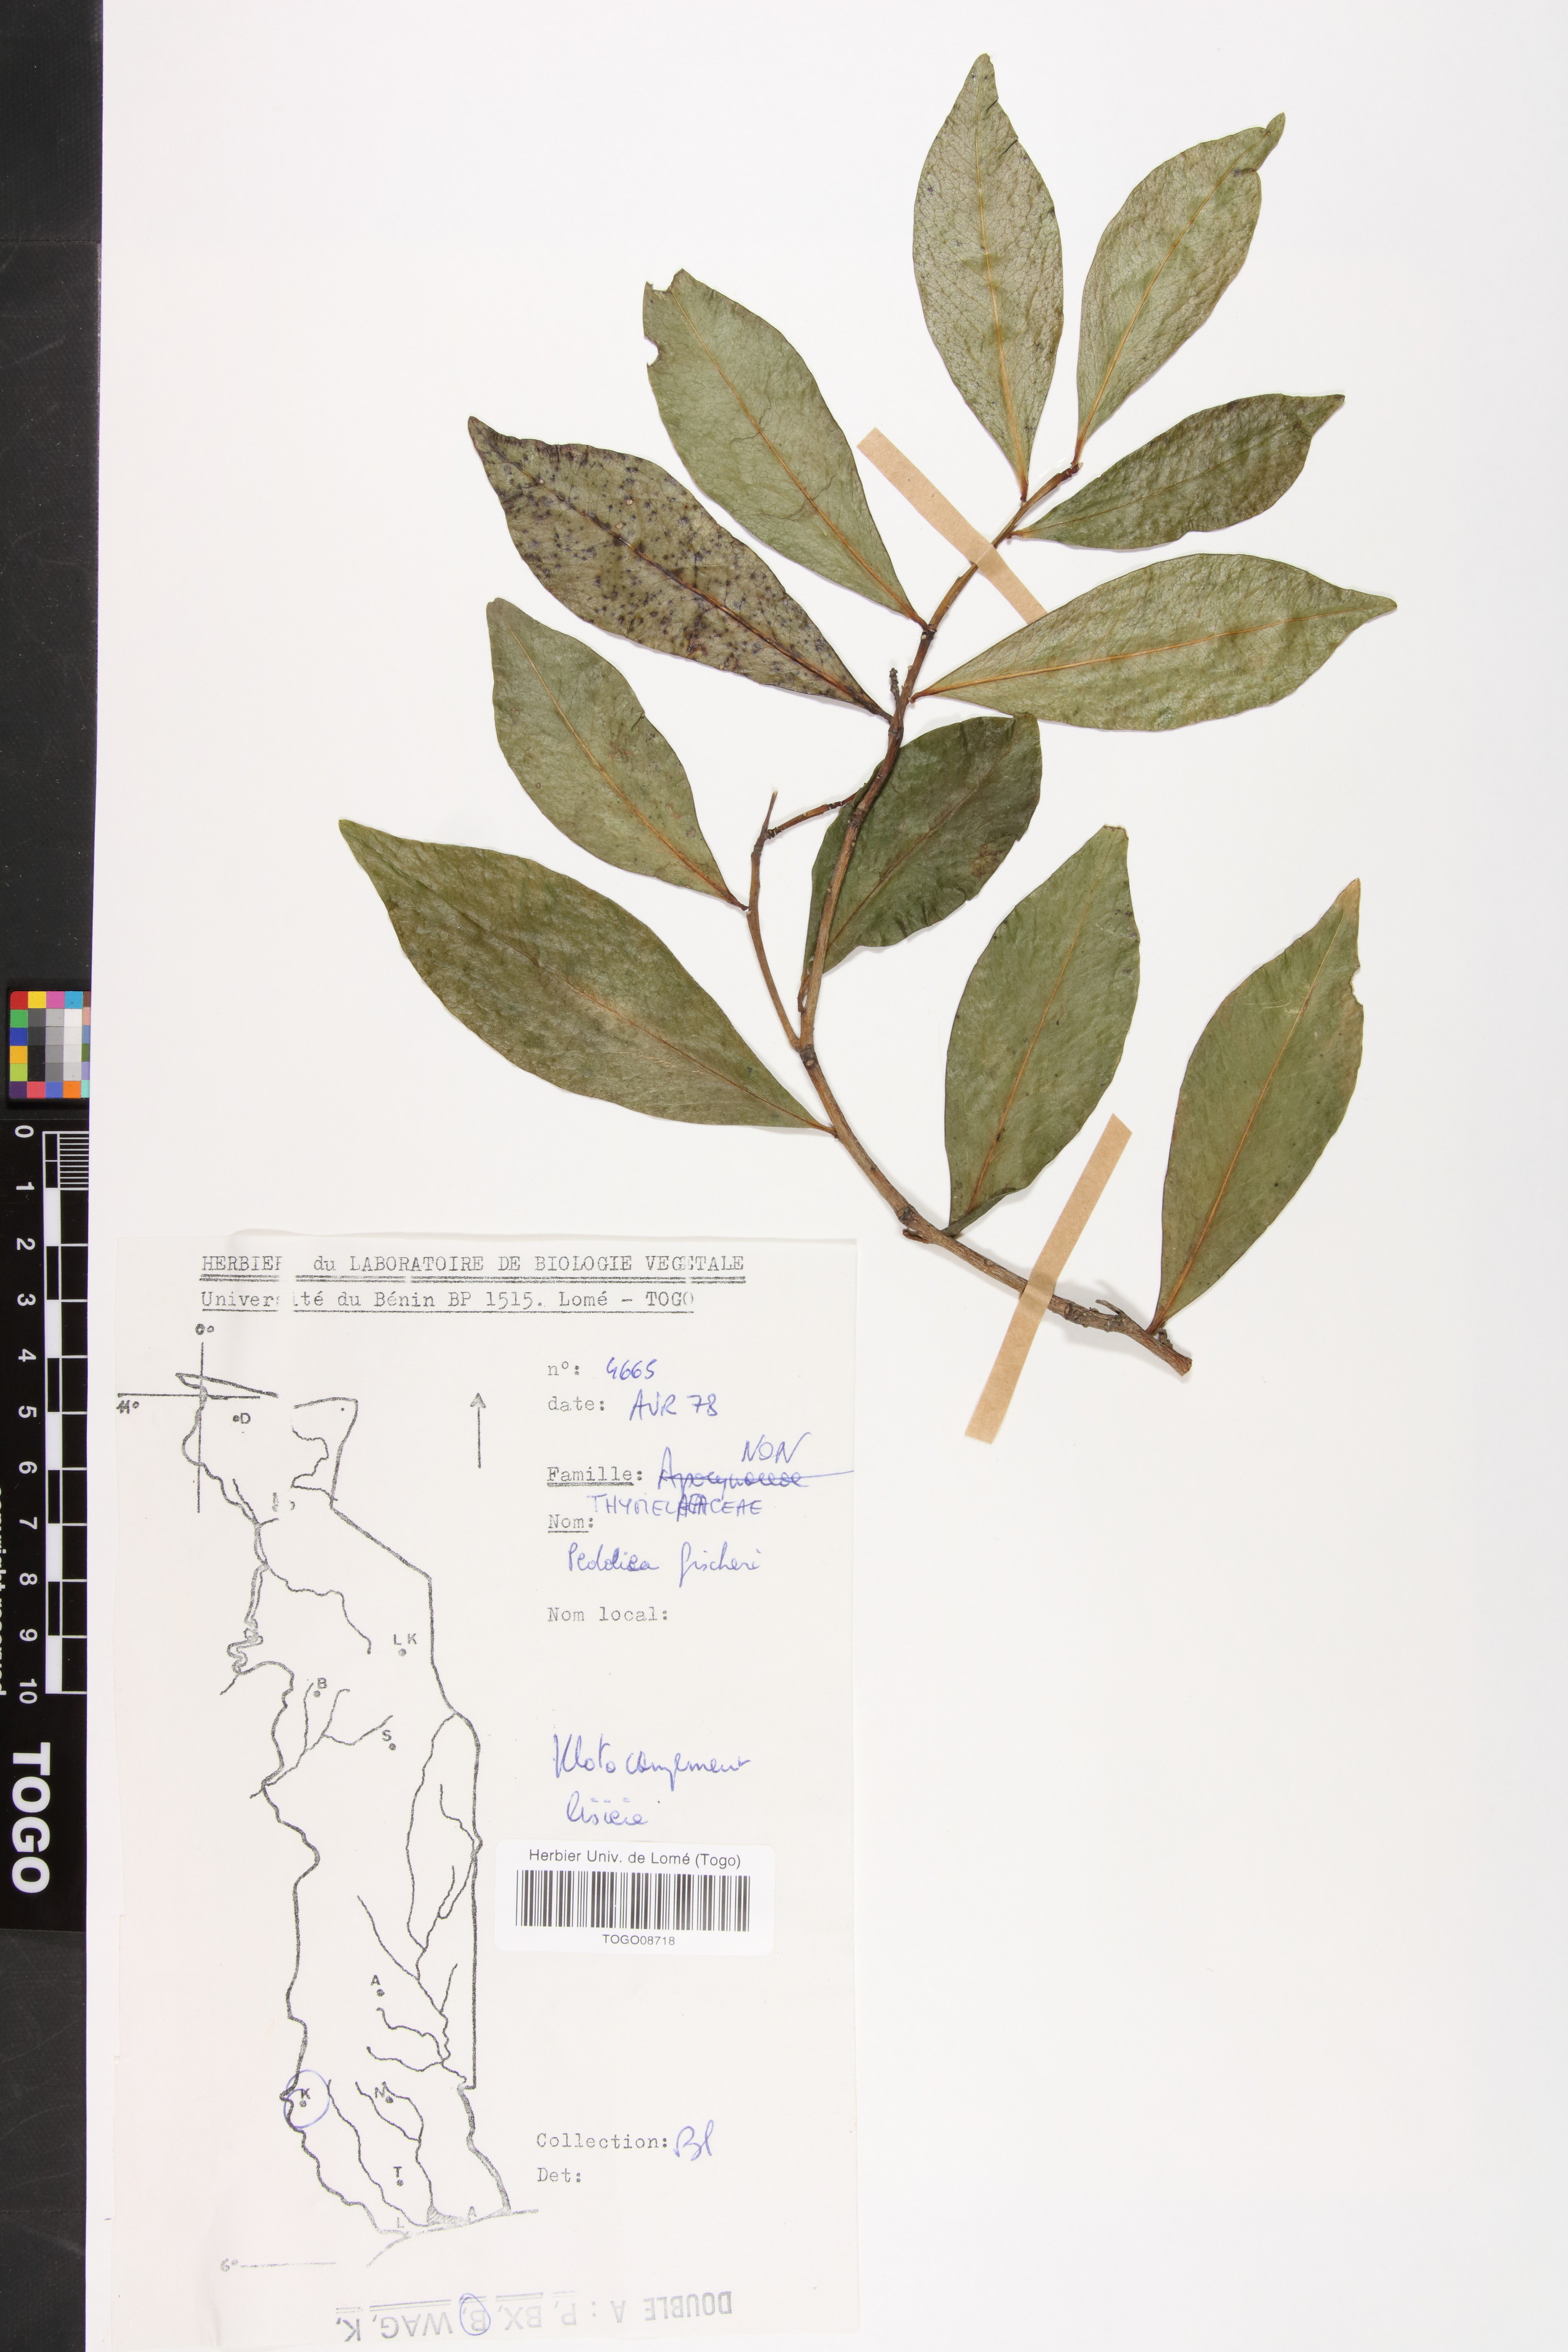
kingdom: Plantae
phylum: Tracheophyta
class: Magnoliopsida
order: Malvales
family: Thymelaeaceae
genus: Peddiea
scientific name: Peddiea fischeri
